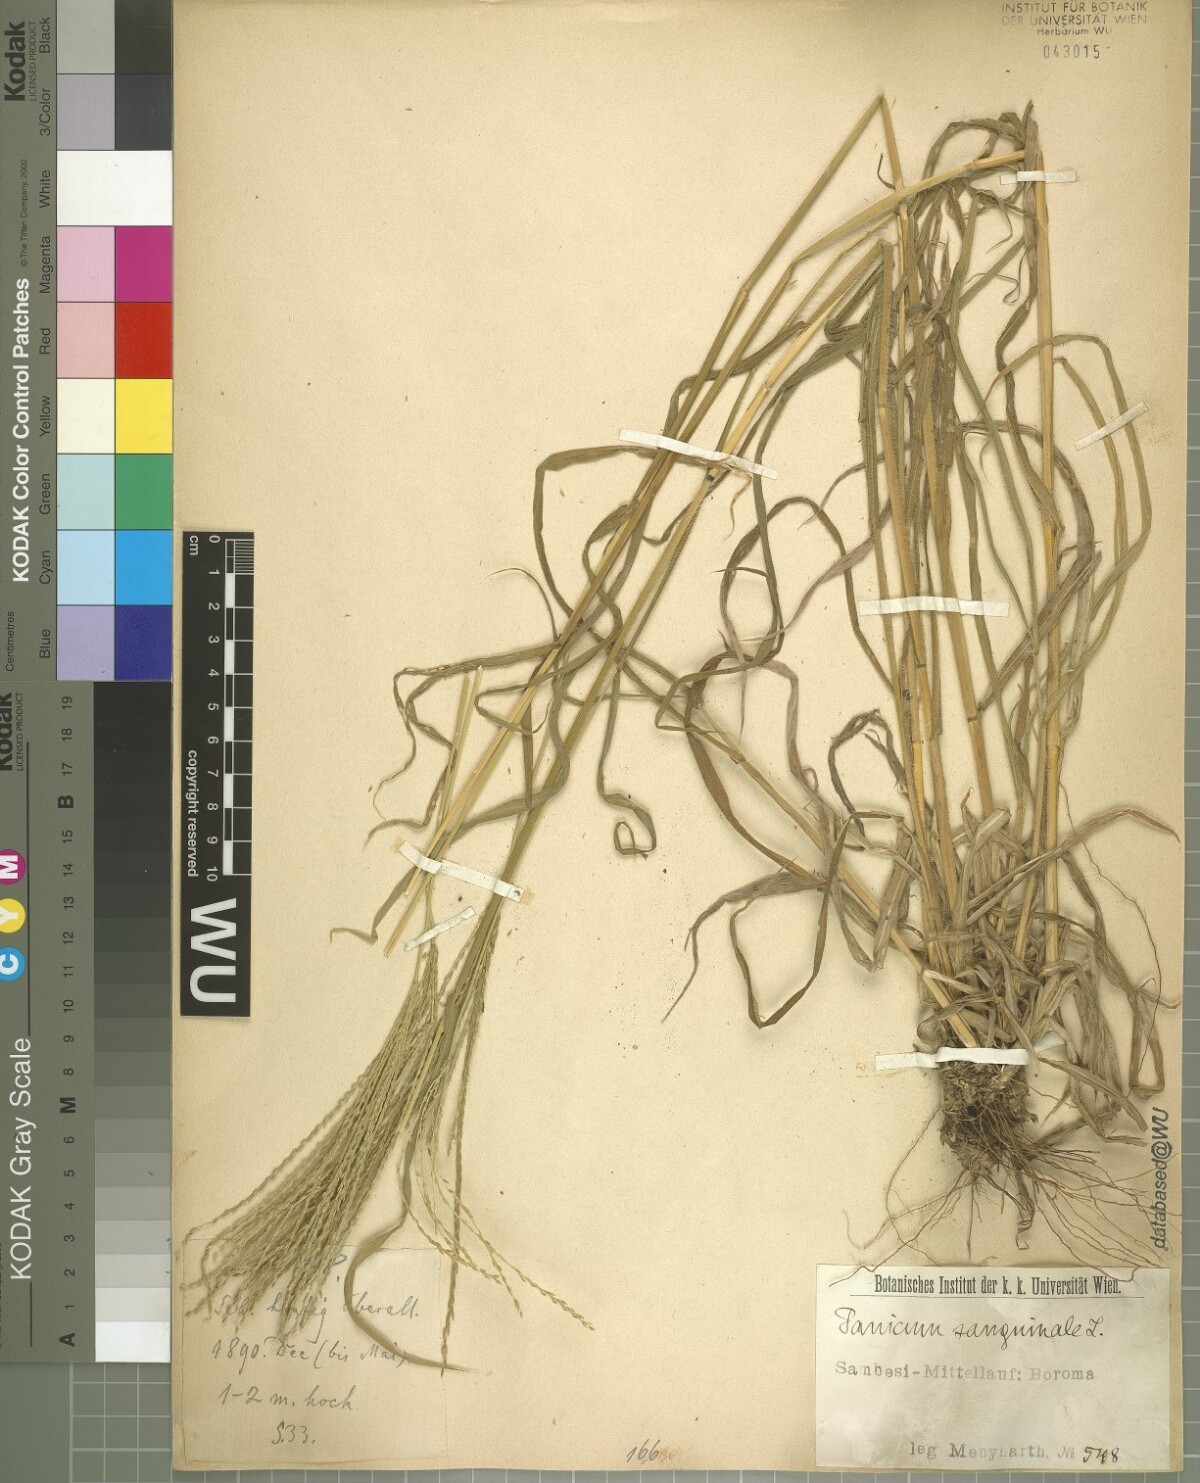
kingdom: Plantae
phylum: Tracheophyta
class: Liliopsida
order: Poales
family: Poaceae
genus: Digitaria
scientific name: Digitaria sanguinalis
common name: Hairy crabgrass
